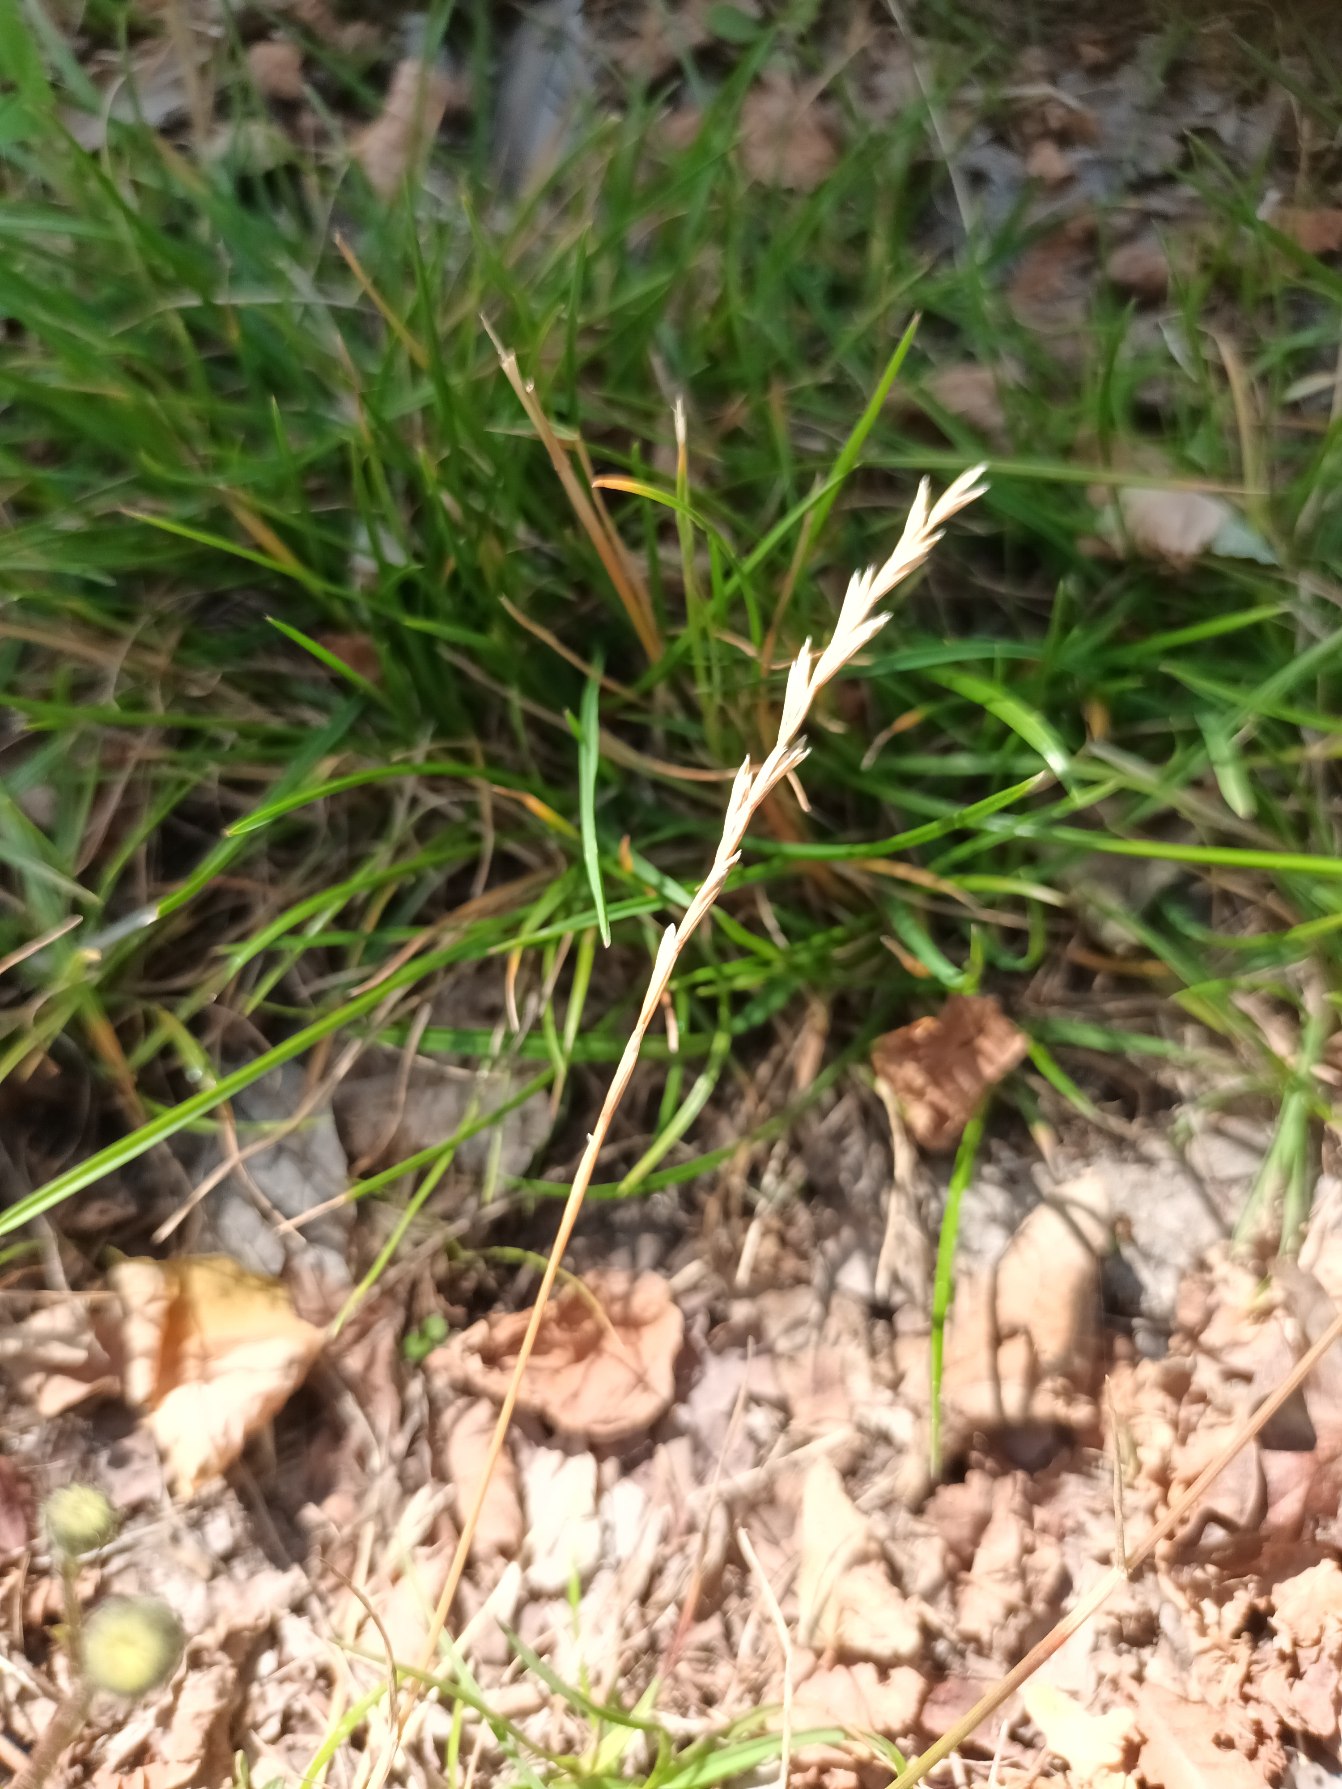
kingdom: Plantae
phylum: Tracheophyta
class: Liliopsida
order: Poales
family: Poaceae
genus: Lolium
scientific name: Lolium perenne
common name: Almindelig rajgræs
